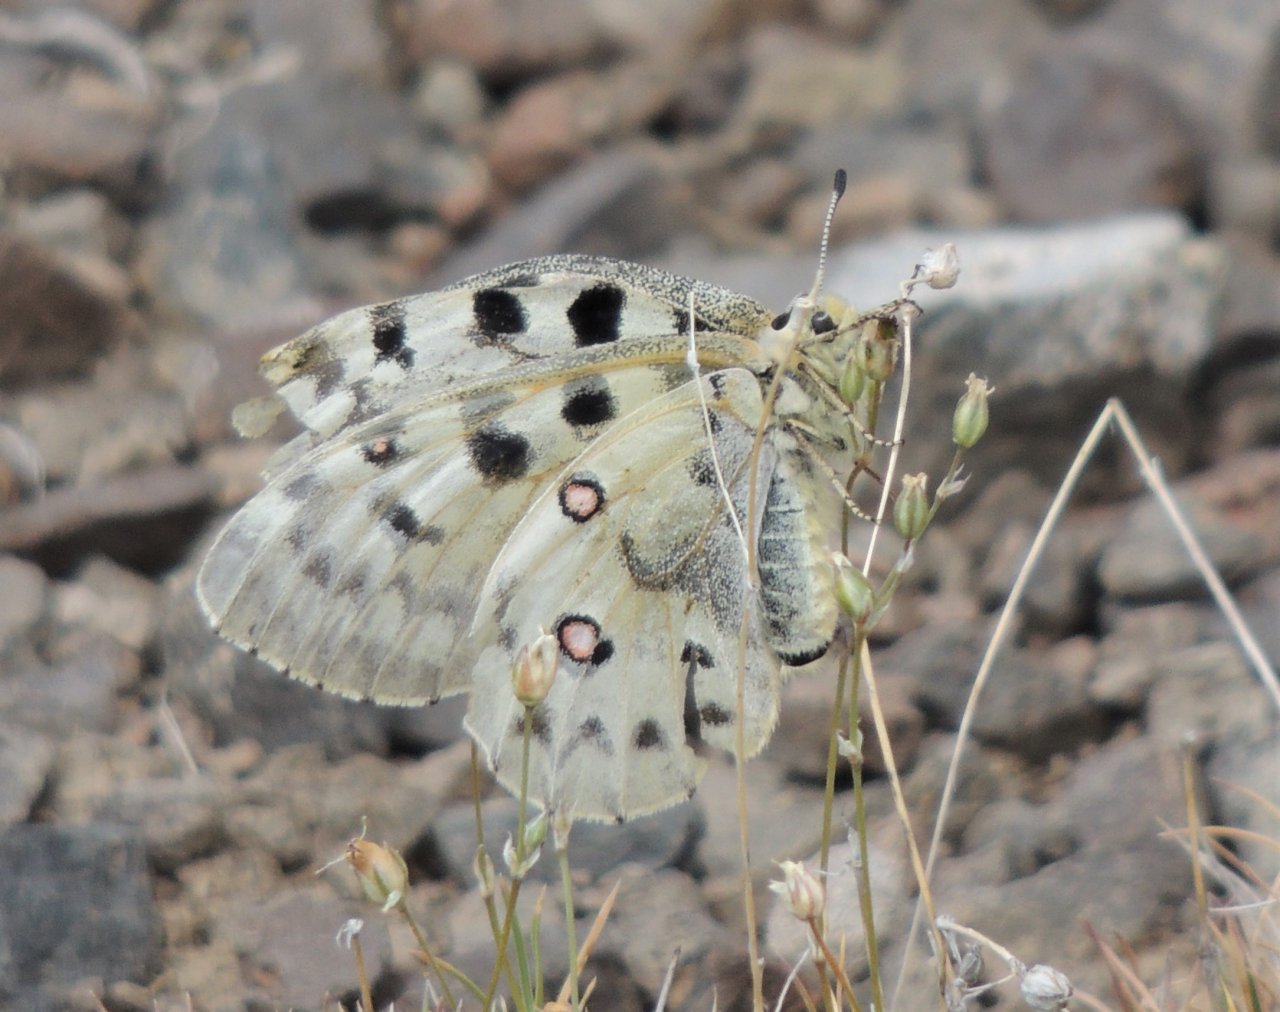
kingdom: Animalia
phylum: Arthropoda
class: Insecta
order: Lepidoptera
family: Papilionidae
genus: Parnassius
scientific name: Parnassius smintheus
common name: Rocky Mountain Parnassian
